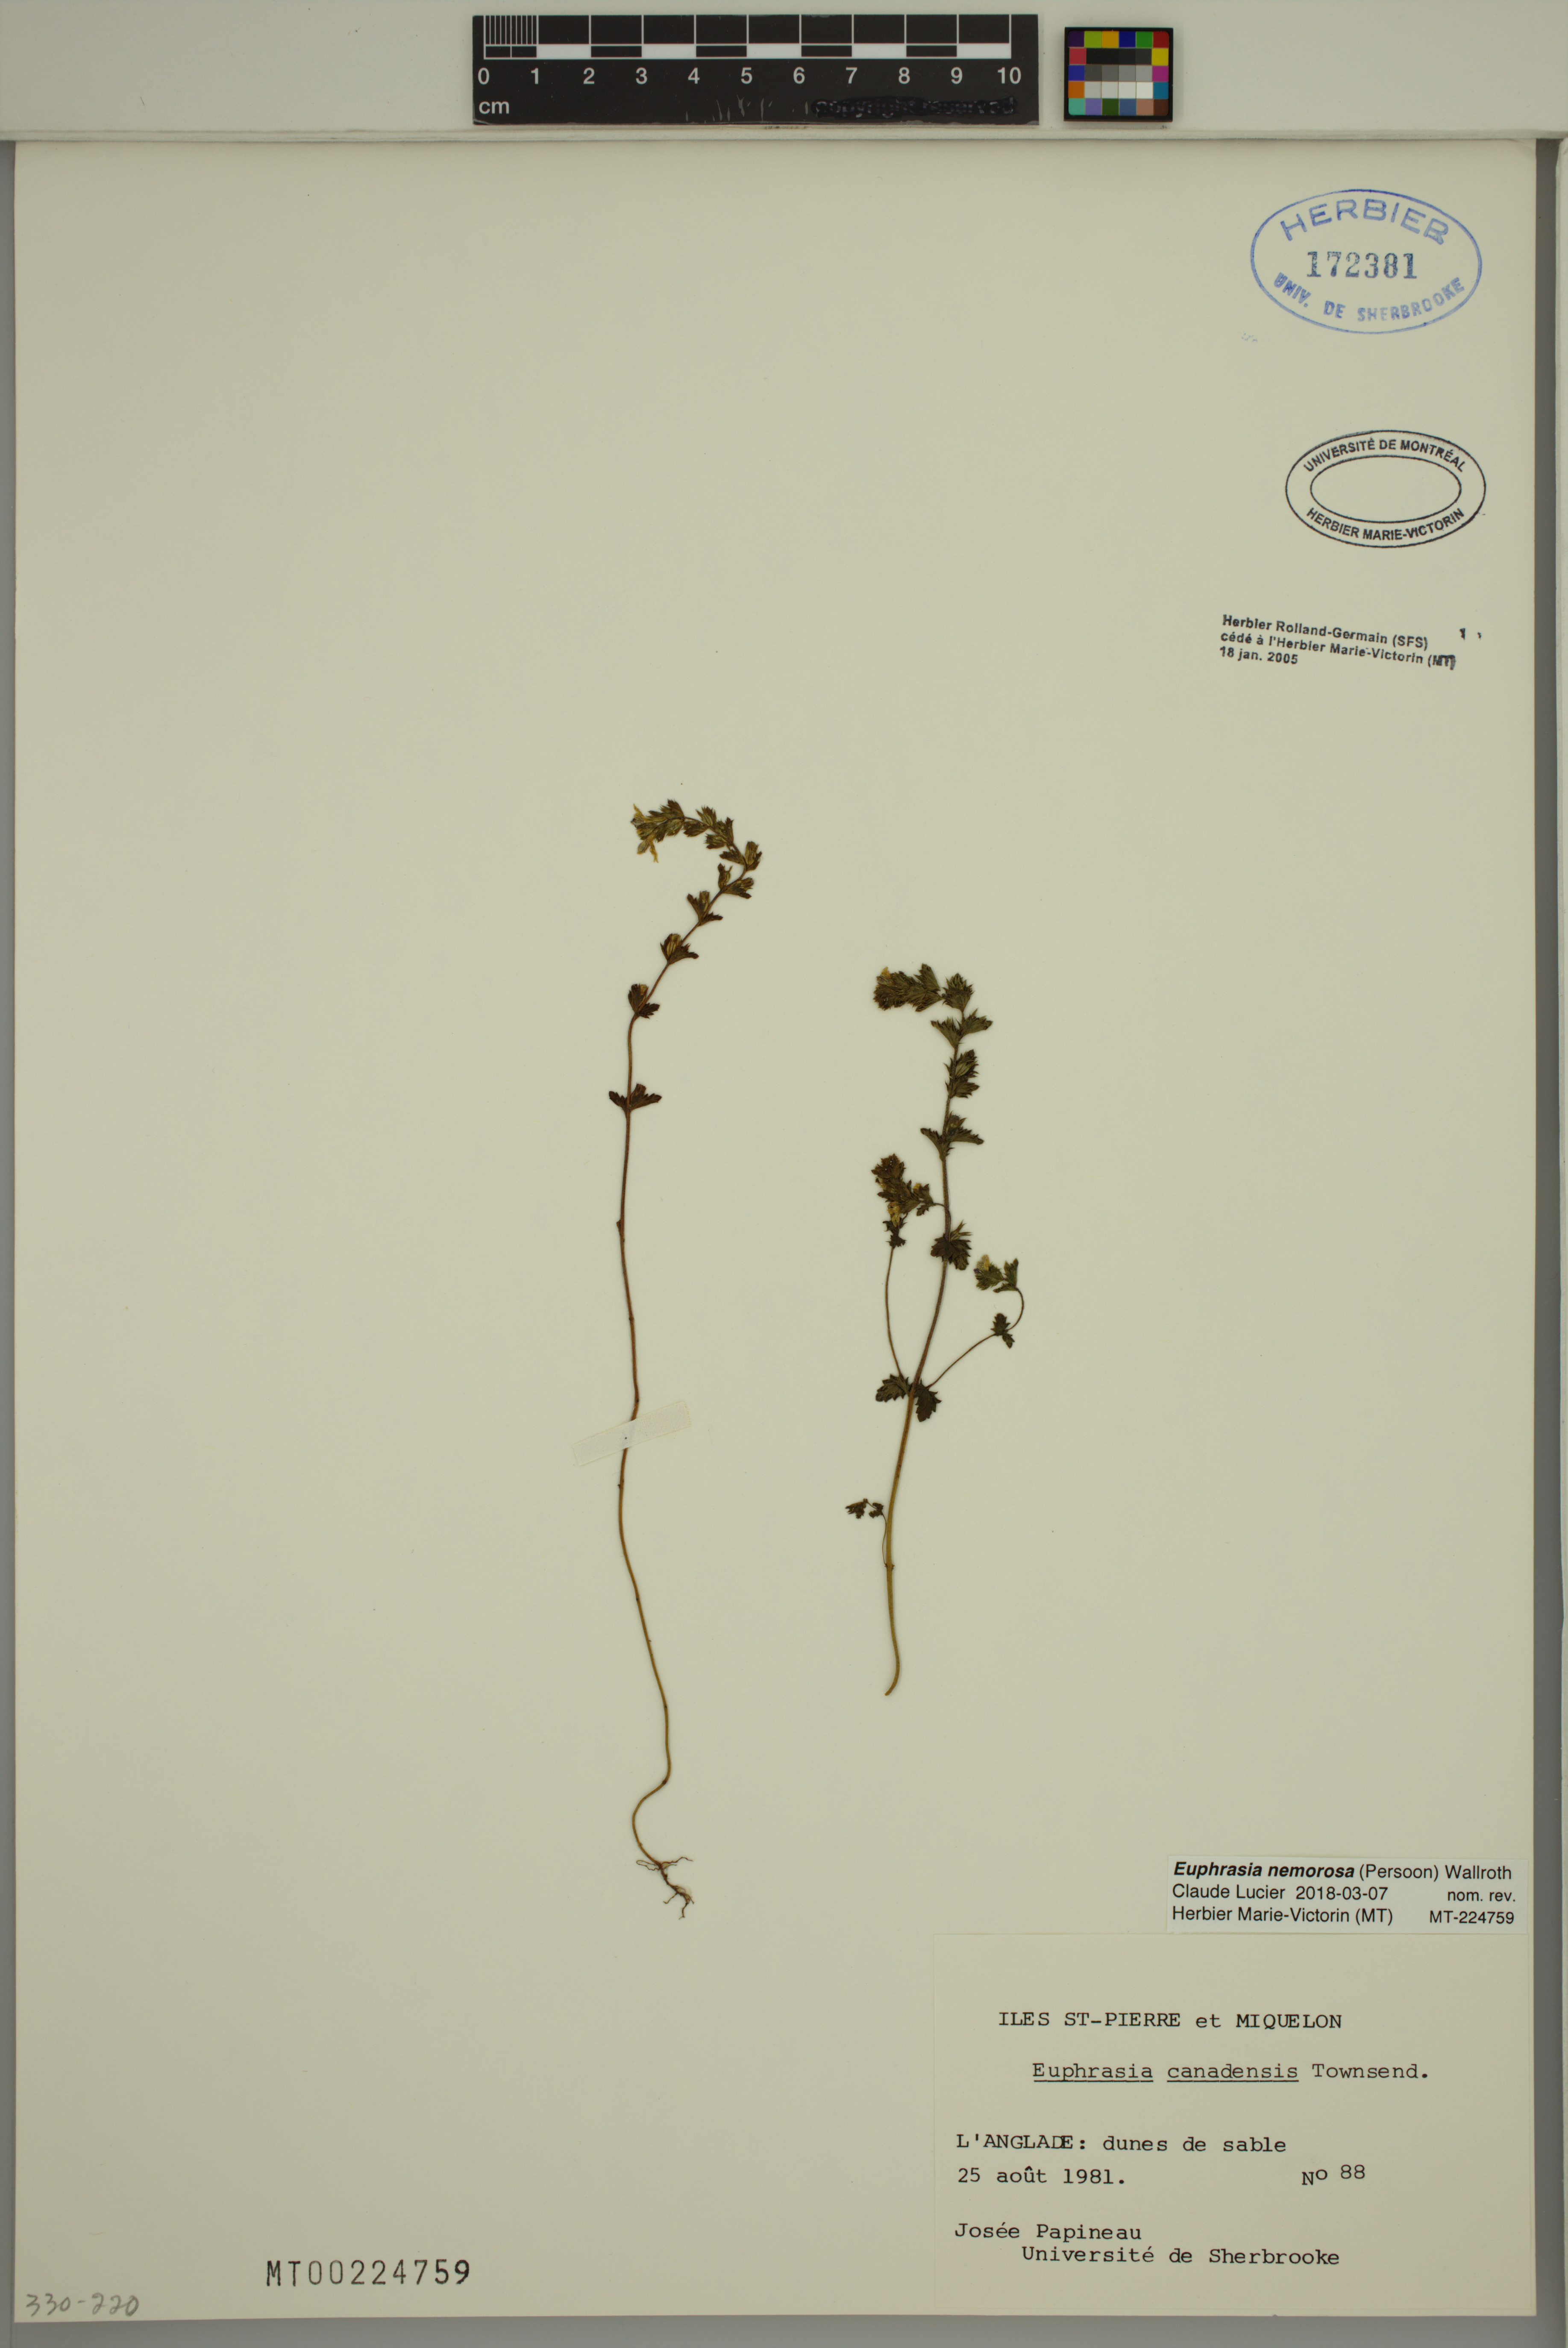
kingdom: Plantae
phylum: Tracheophyta
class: Magnoliopsida
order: Lamiales
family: Orobanchaceae
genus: Euphrasia
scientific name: Euphrasia nemorosa
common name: Common eyebright
